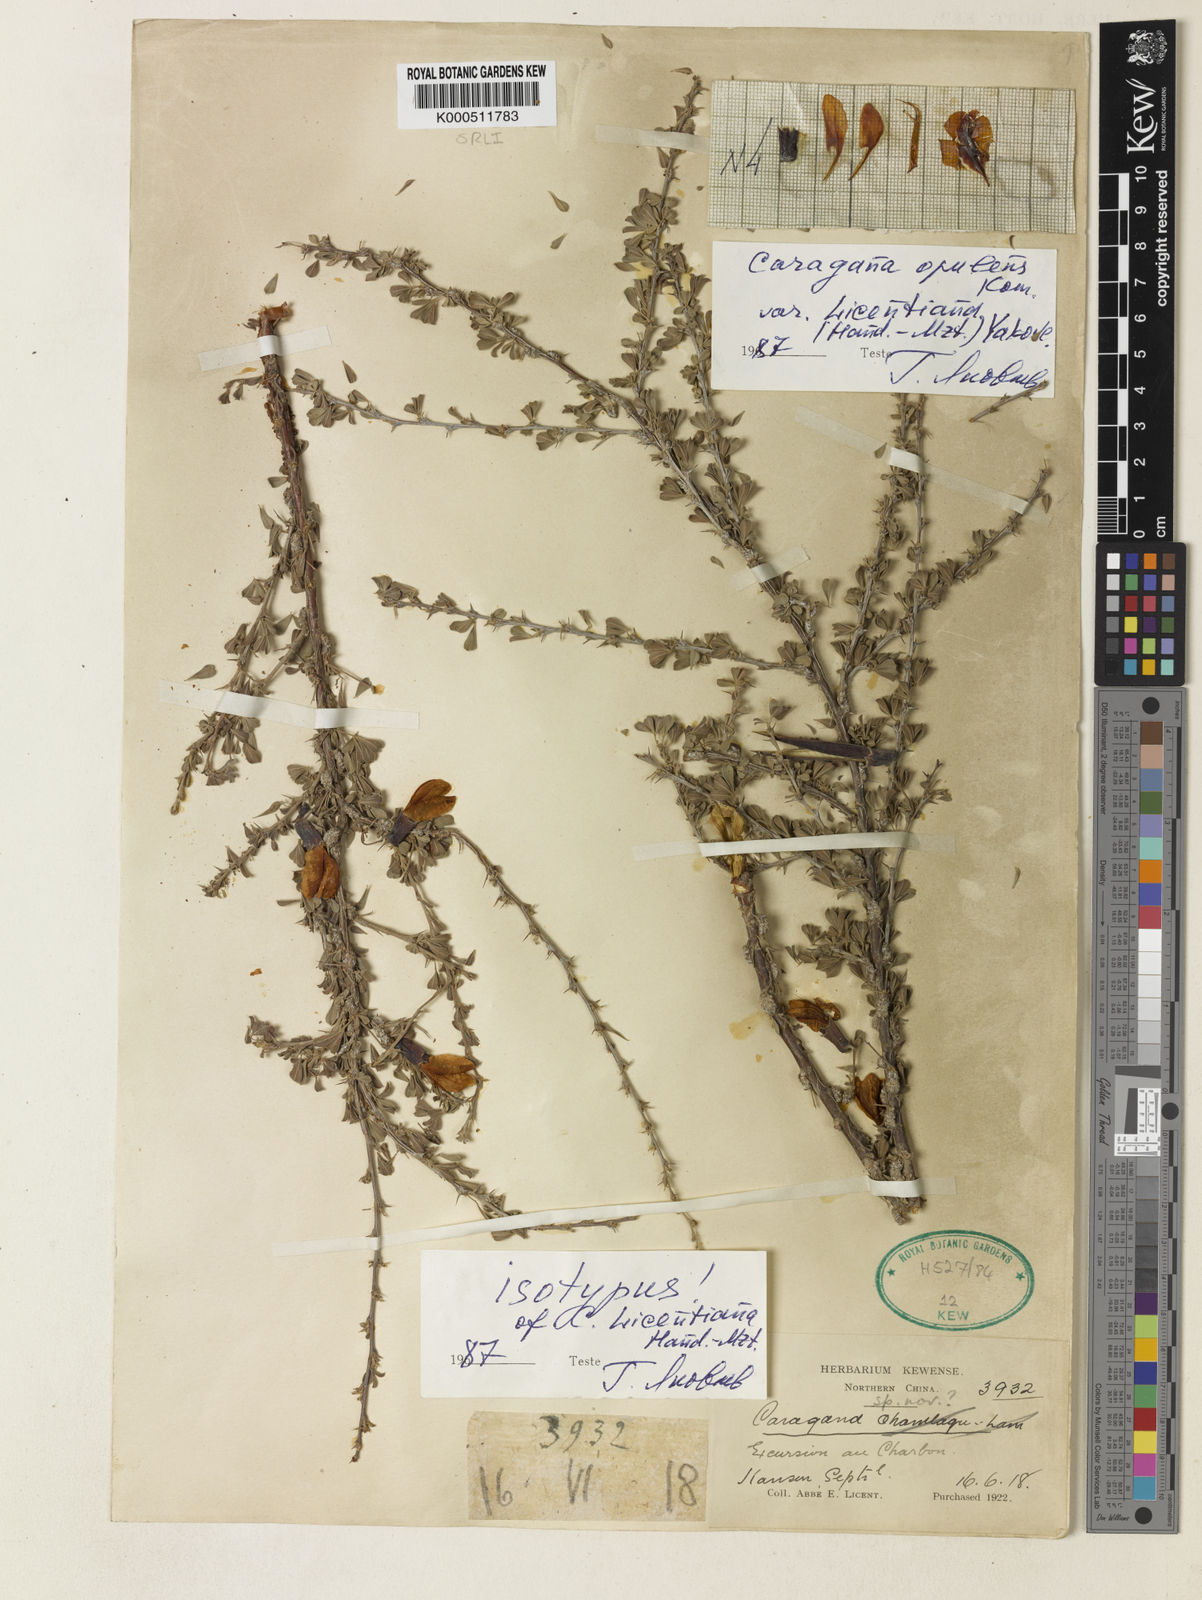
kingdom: Plantae
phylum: Tracheophyta
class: Magnoliopsida
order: Fabales
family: Fabaceae
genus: Caragana
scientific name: Caragana opulens
